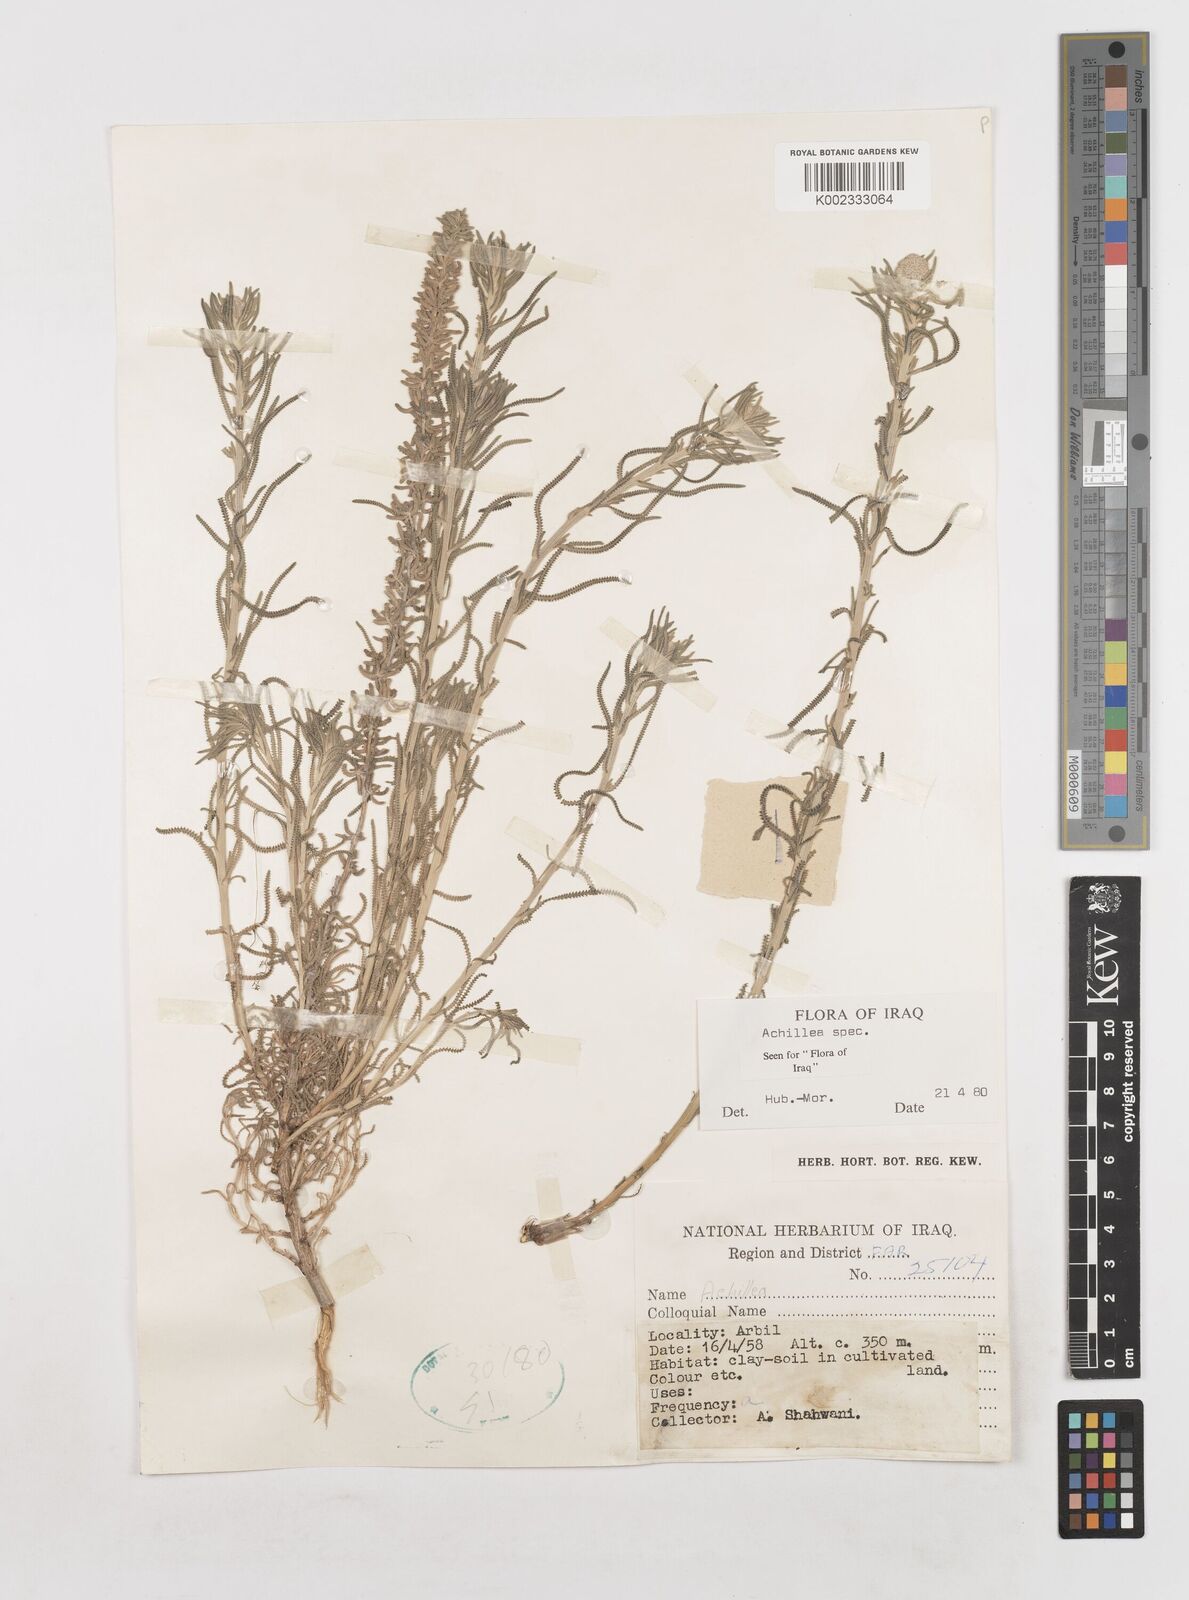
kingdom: Plantae
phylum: Tracheophyta
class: Magnoliopsida
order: Asterales
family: Asteraceae
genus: Achillea
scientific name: Achillea
